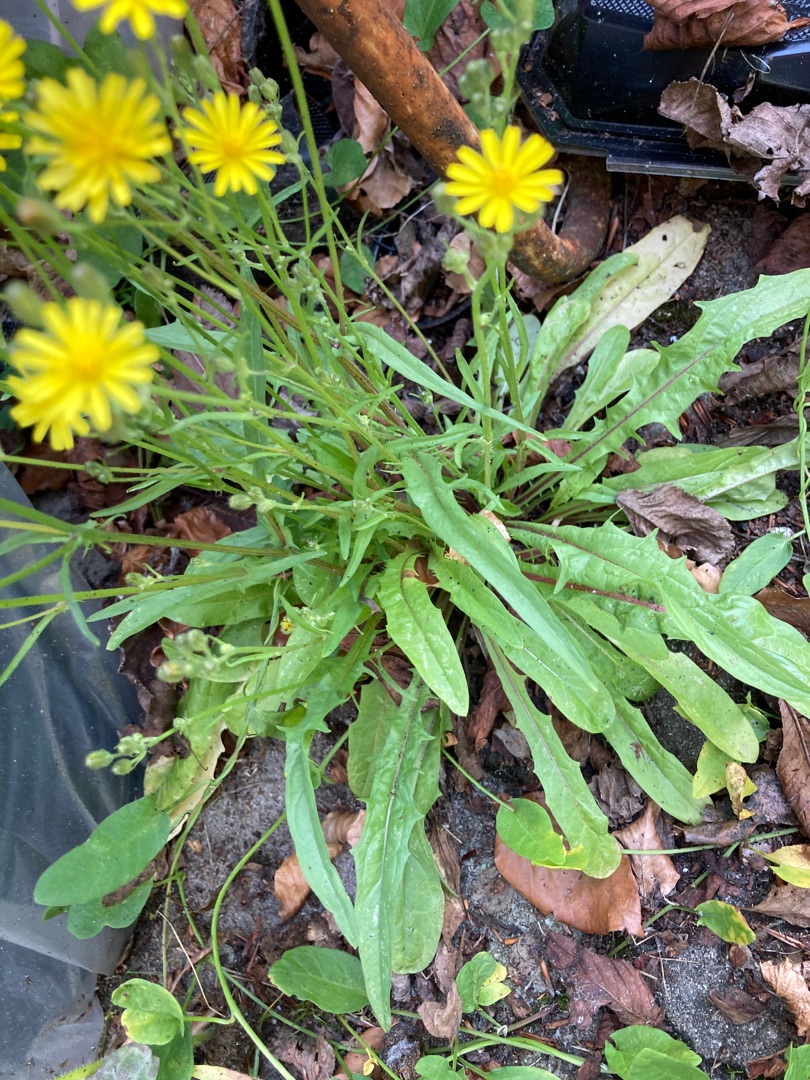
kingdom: Plantae
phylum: Tracheophyta
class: Magnoliopsida
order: Asterales
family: Asteraceae
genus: Crepis
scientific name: Crepis capillaris
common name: Grøn høgeskæg
